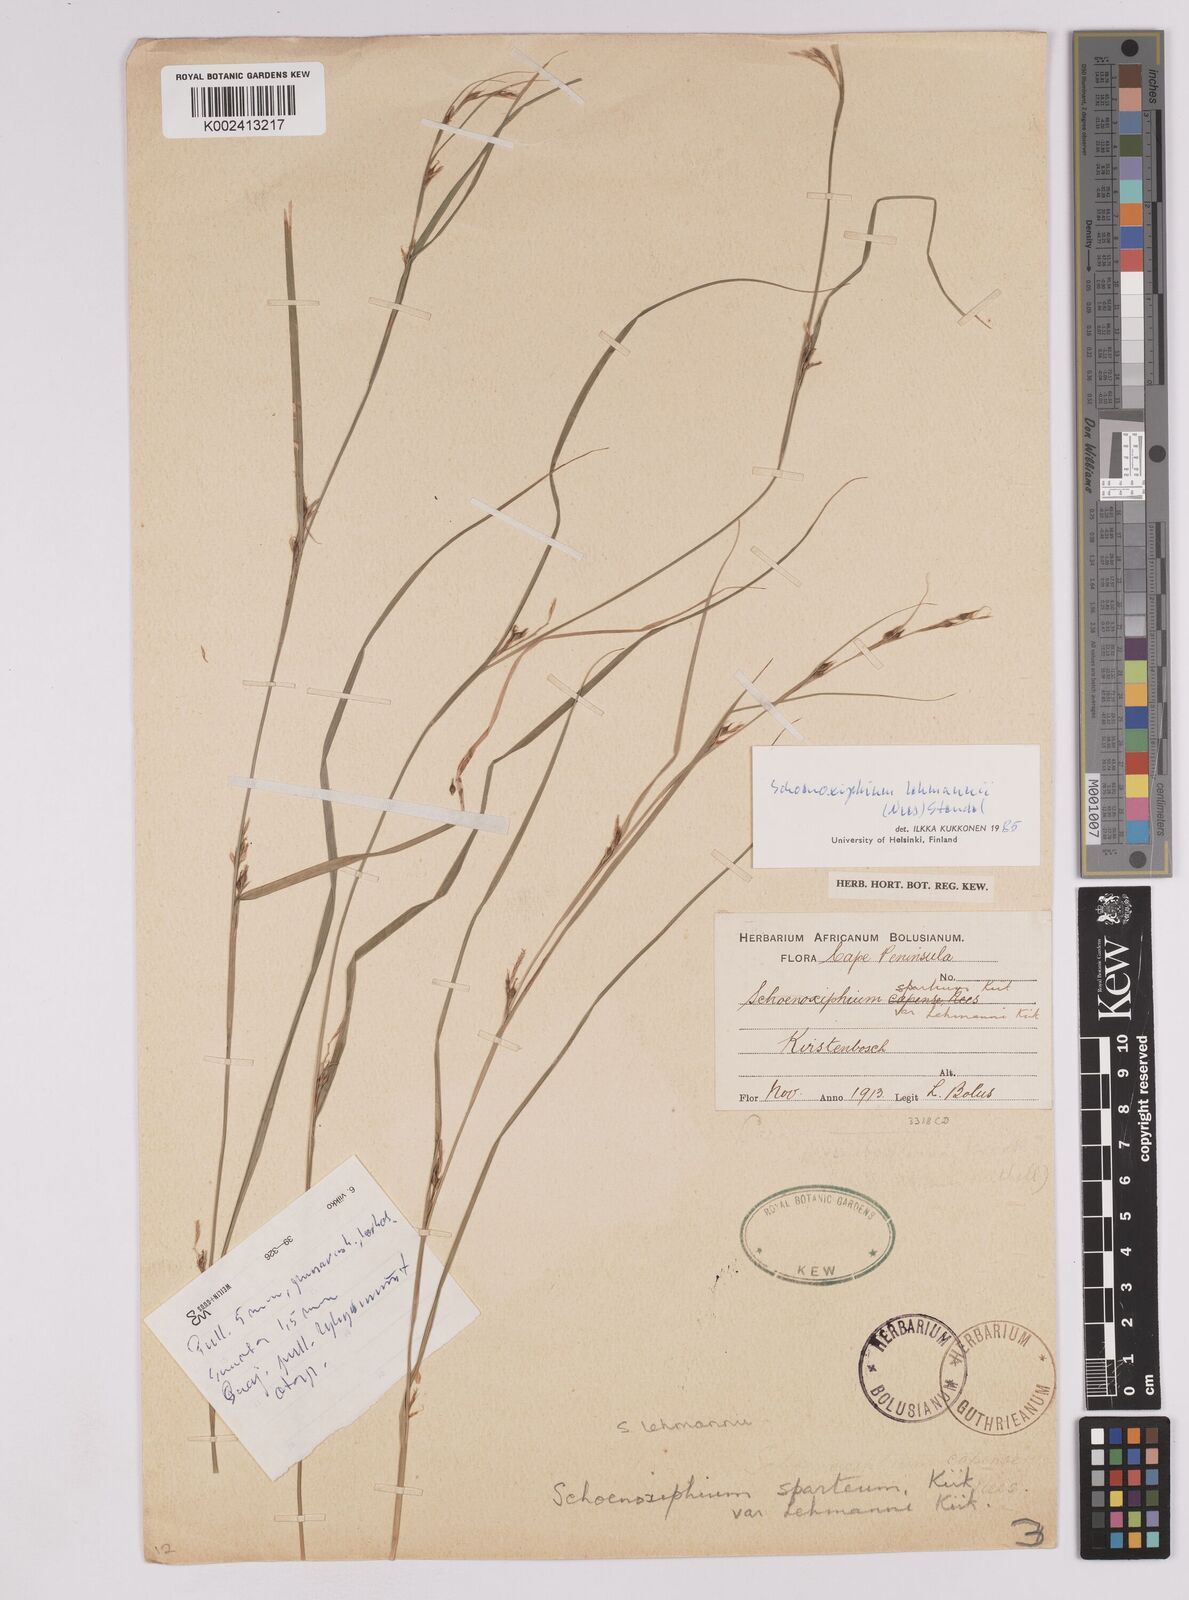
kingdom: Plantae
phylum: Tracheophyta
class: Liliopsida
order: Poales
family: Cyperaceae
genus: Carex
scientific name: Carex uhligii
